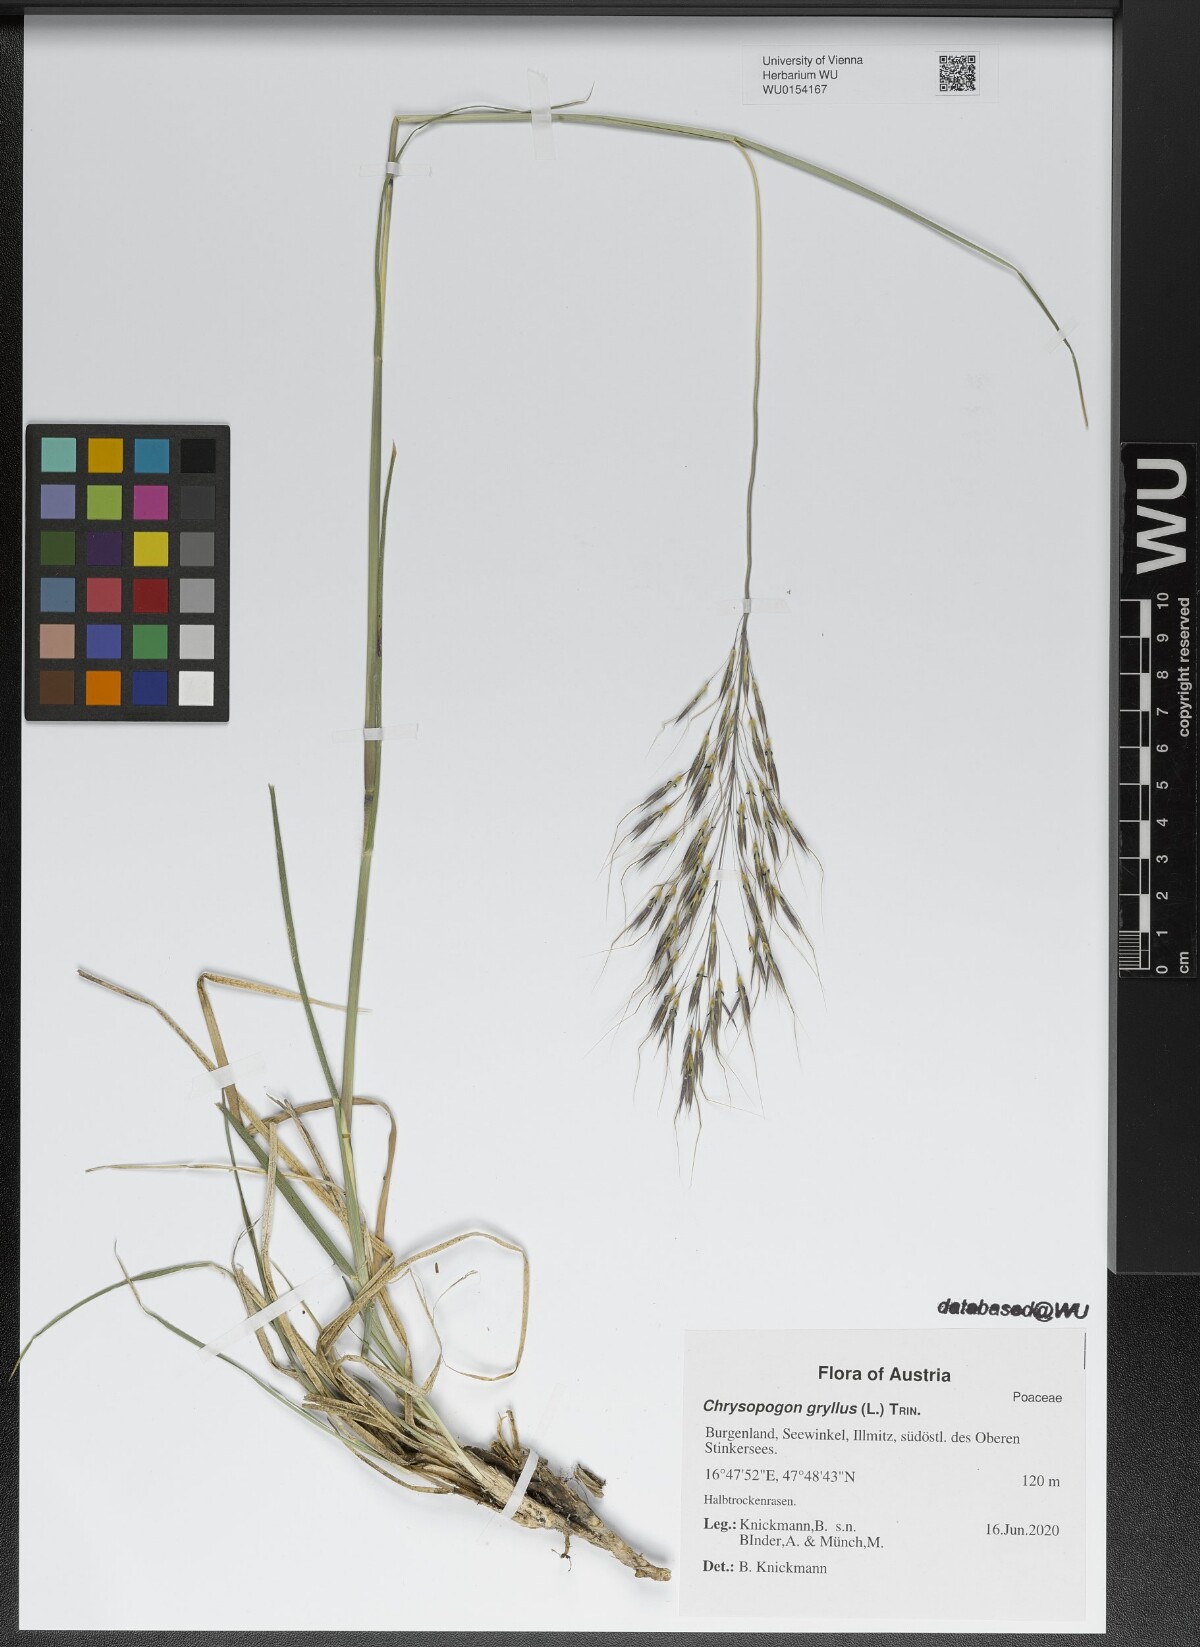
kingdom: Plantae
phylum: Tracheophyta
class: Liliopsida
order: Poales
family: Poaceae
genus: Chrysopogon
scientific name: Chrysopogon gryllus
